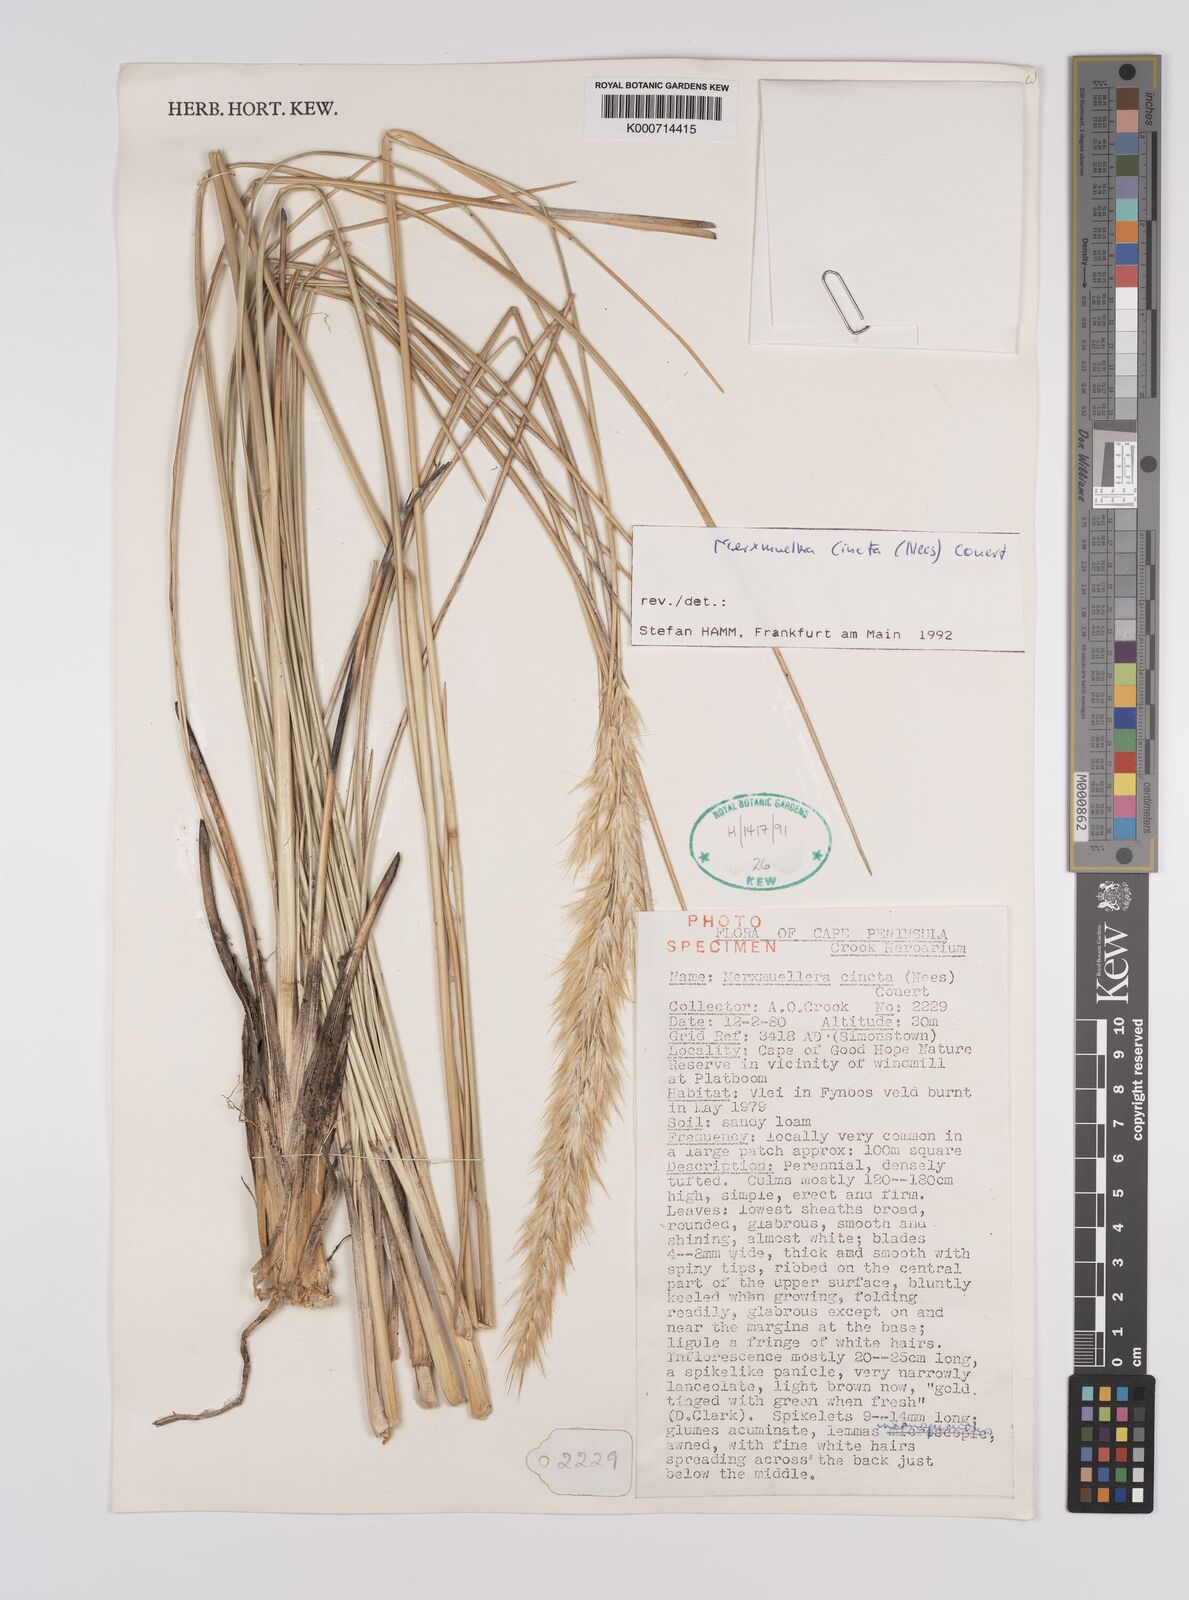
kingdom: Plantae
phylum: Tracheophyta
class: Liliopsida
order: Poales
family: Poaceae
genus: Rytidosperma
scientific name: Rytidosperma
